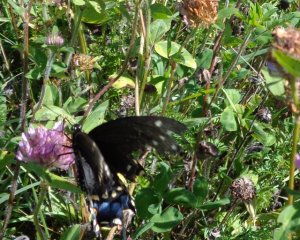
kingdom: Animalia
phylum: Arthropoda
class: Insecta
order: Lepidoptera
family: Papilionidae
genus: Papilio
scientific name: Papilio polyxenes
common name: Black Swallowtail
